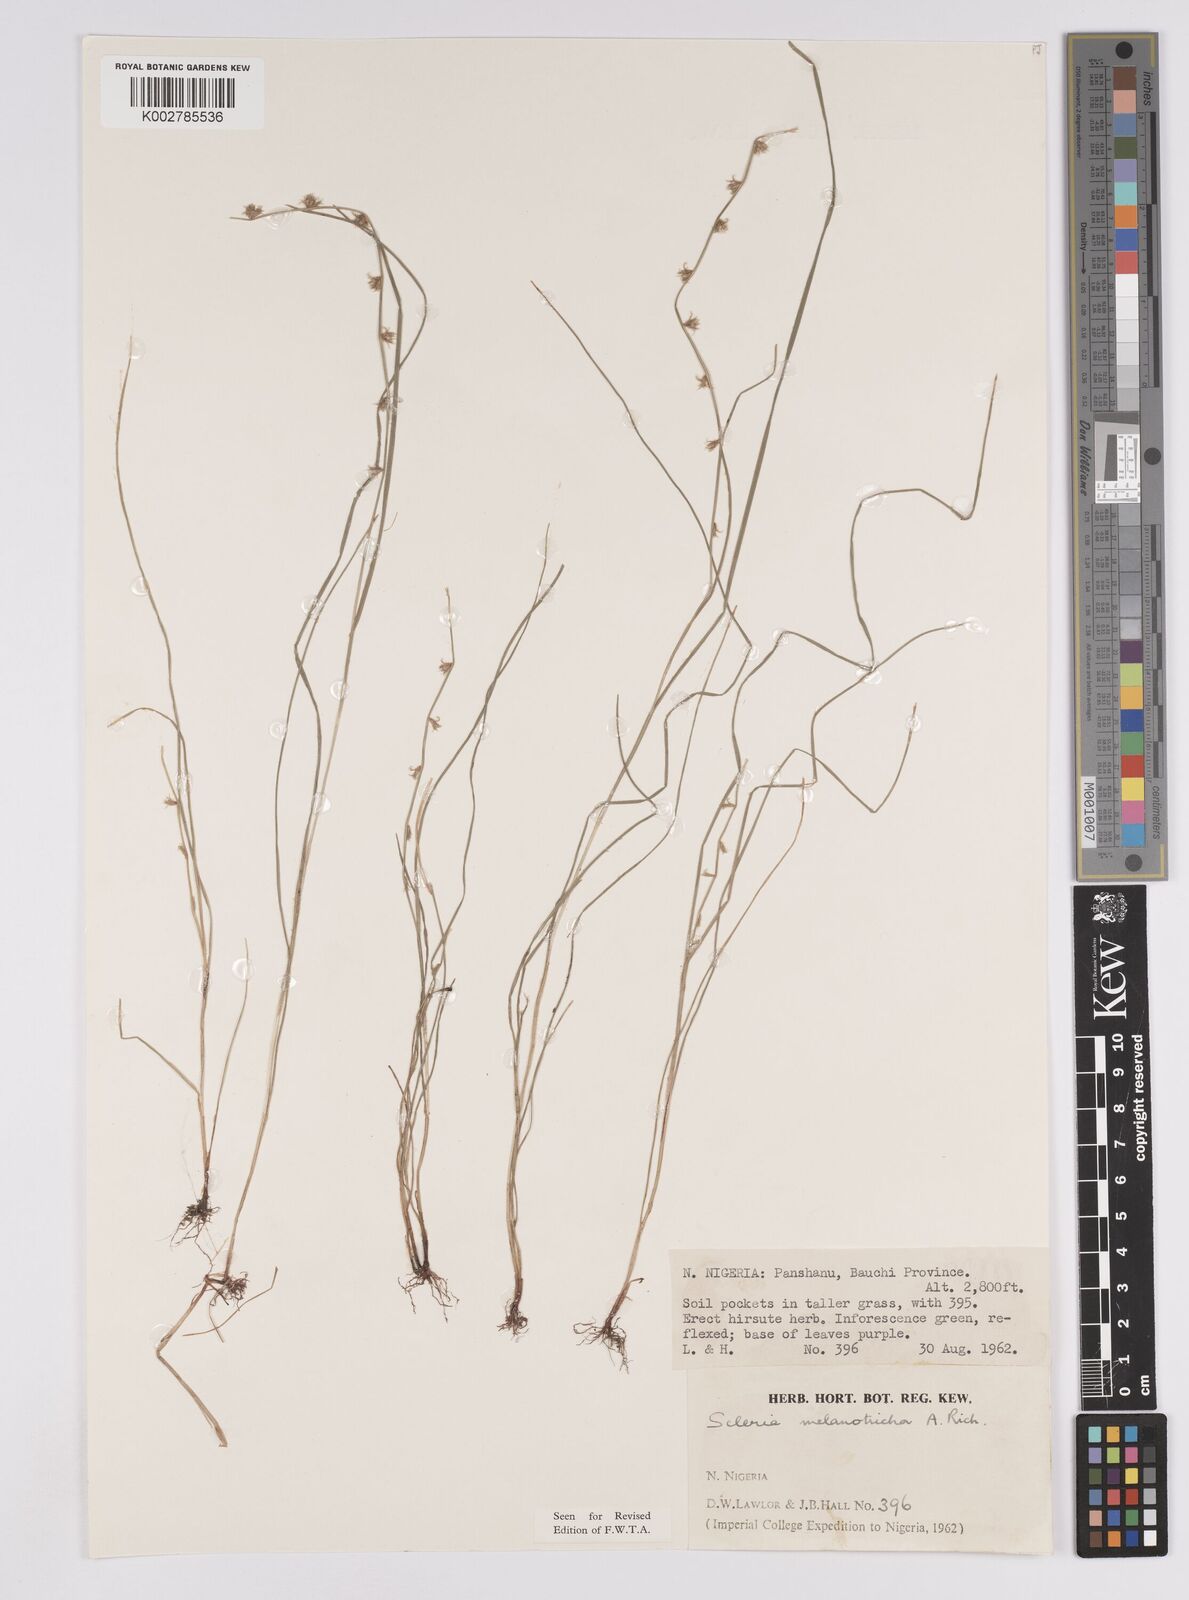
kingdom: Plantae
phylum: Tracheophyta
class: Liliopsida
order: Poales
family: Cyperaceae
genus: Scleria
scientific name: Scleria melanotricha
